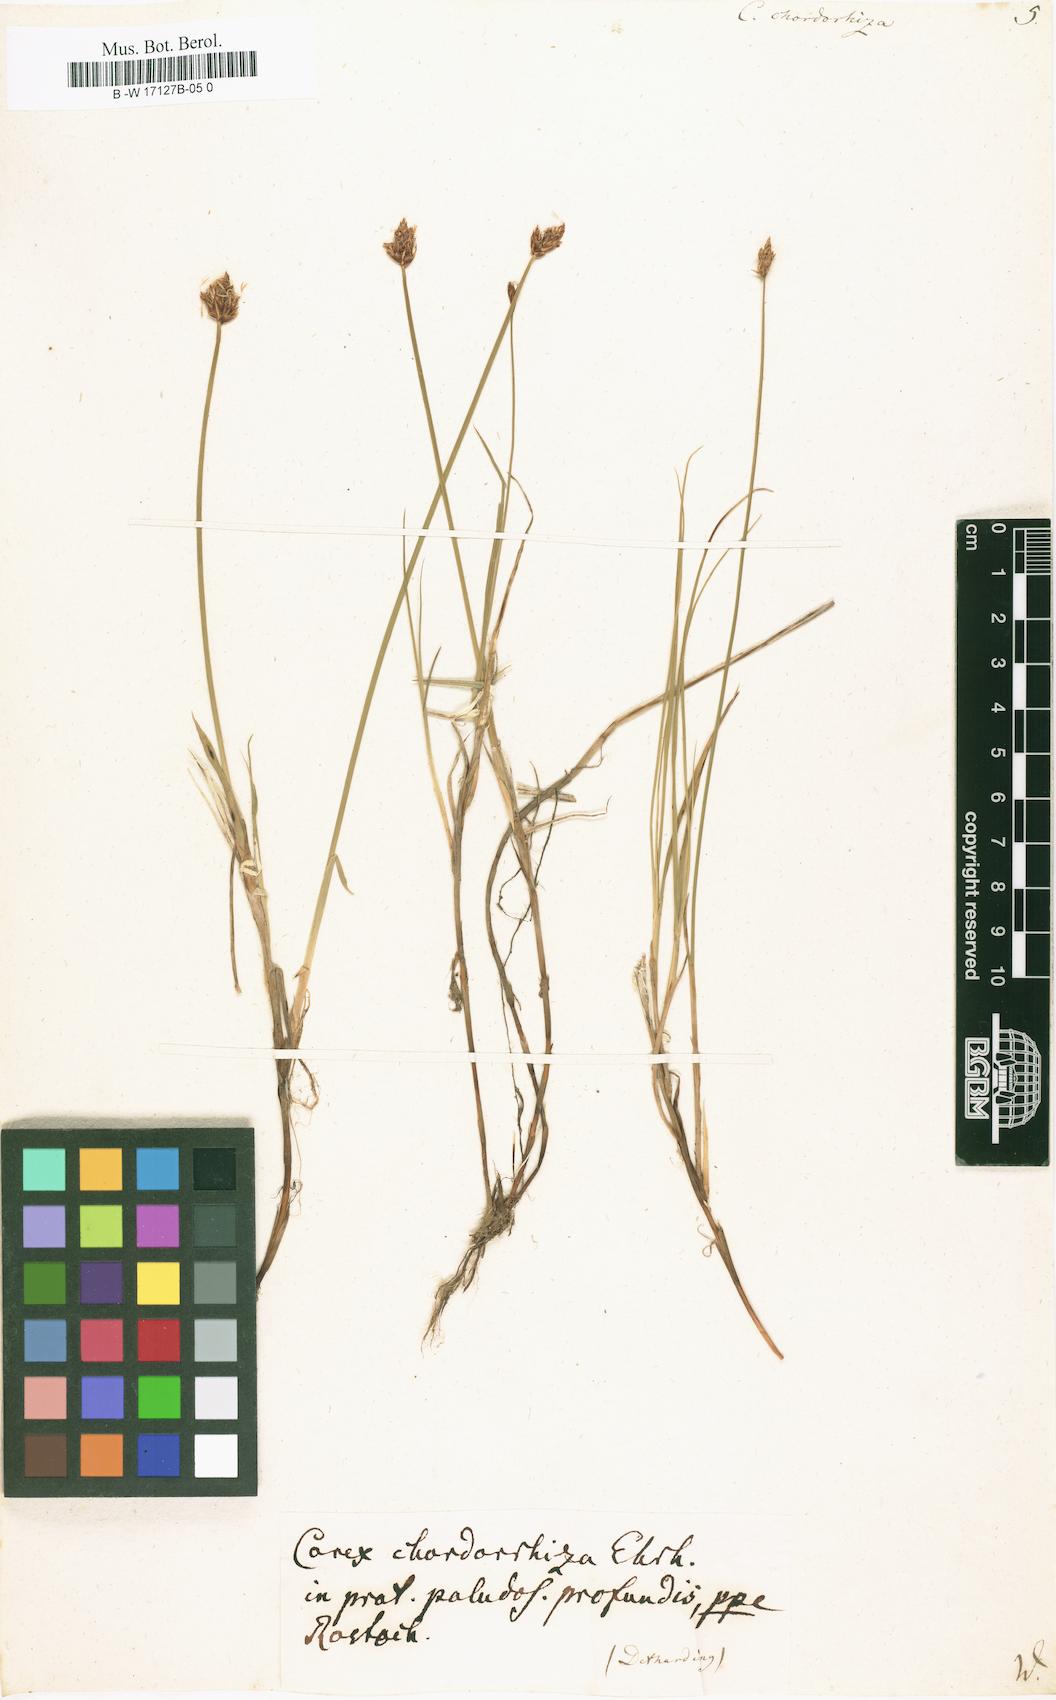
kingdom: Plantae
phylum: Tracheophyta
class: Liliopsida
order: Poales
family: Cyperaceae
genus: Carex
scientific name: Carex chordorrhiza
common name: String sedge
